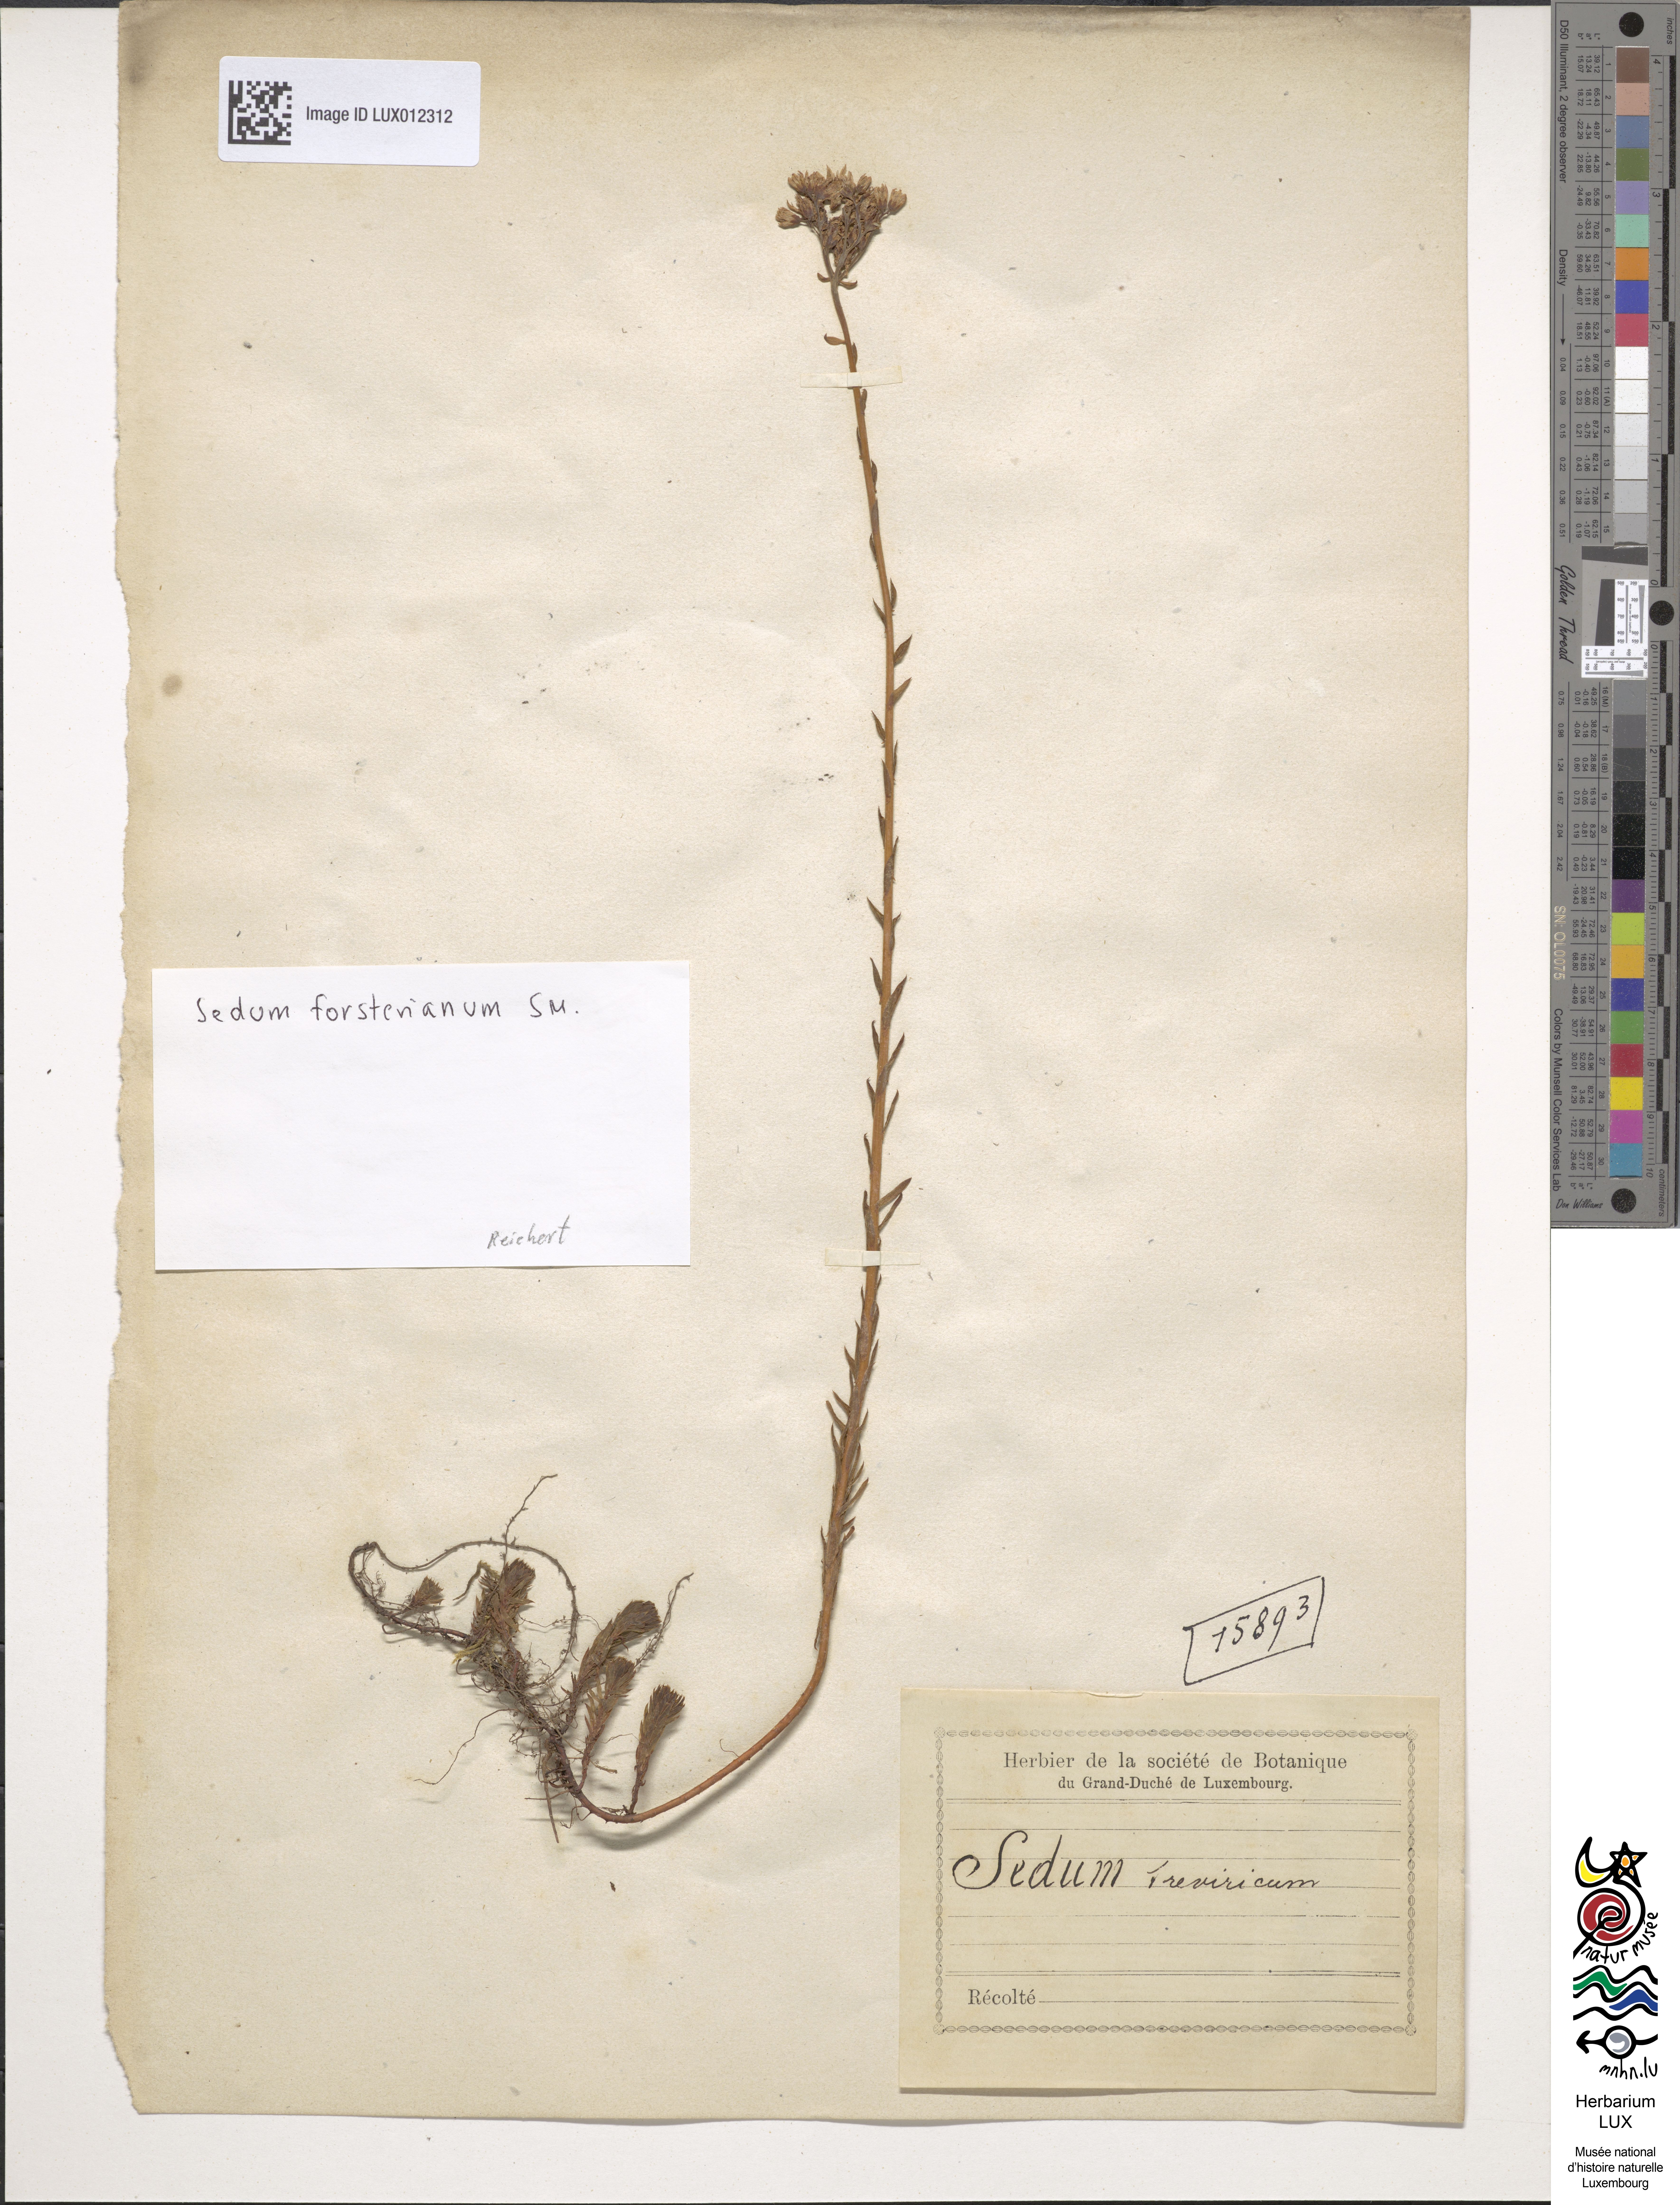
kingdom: Plantae
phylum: Tracheophyta
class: Magnoliopsida
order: Saxifragales
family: Crassulaceae
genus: Petrosedum
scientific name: Petrosedum forsterianum
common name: Forster's stonecrop
